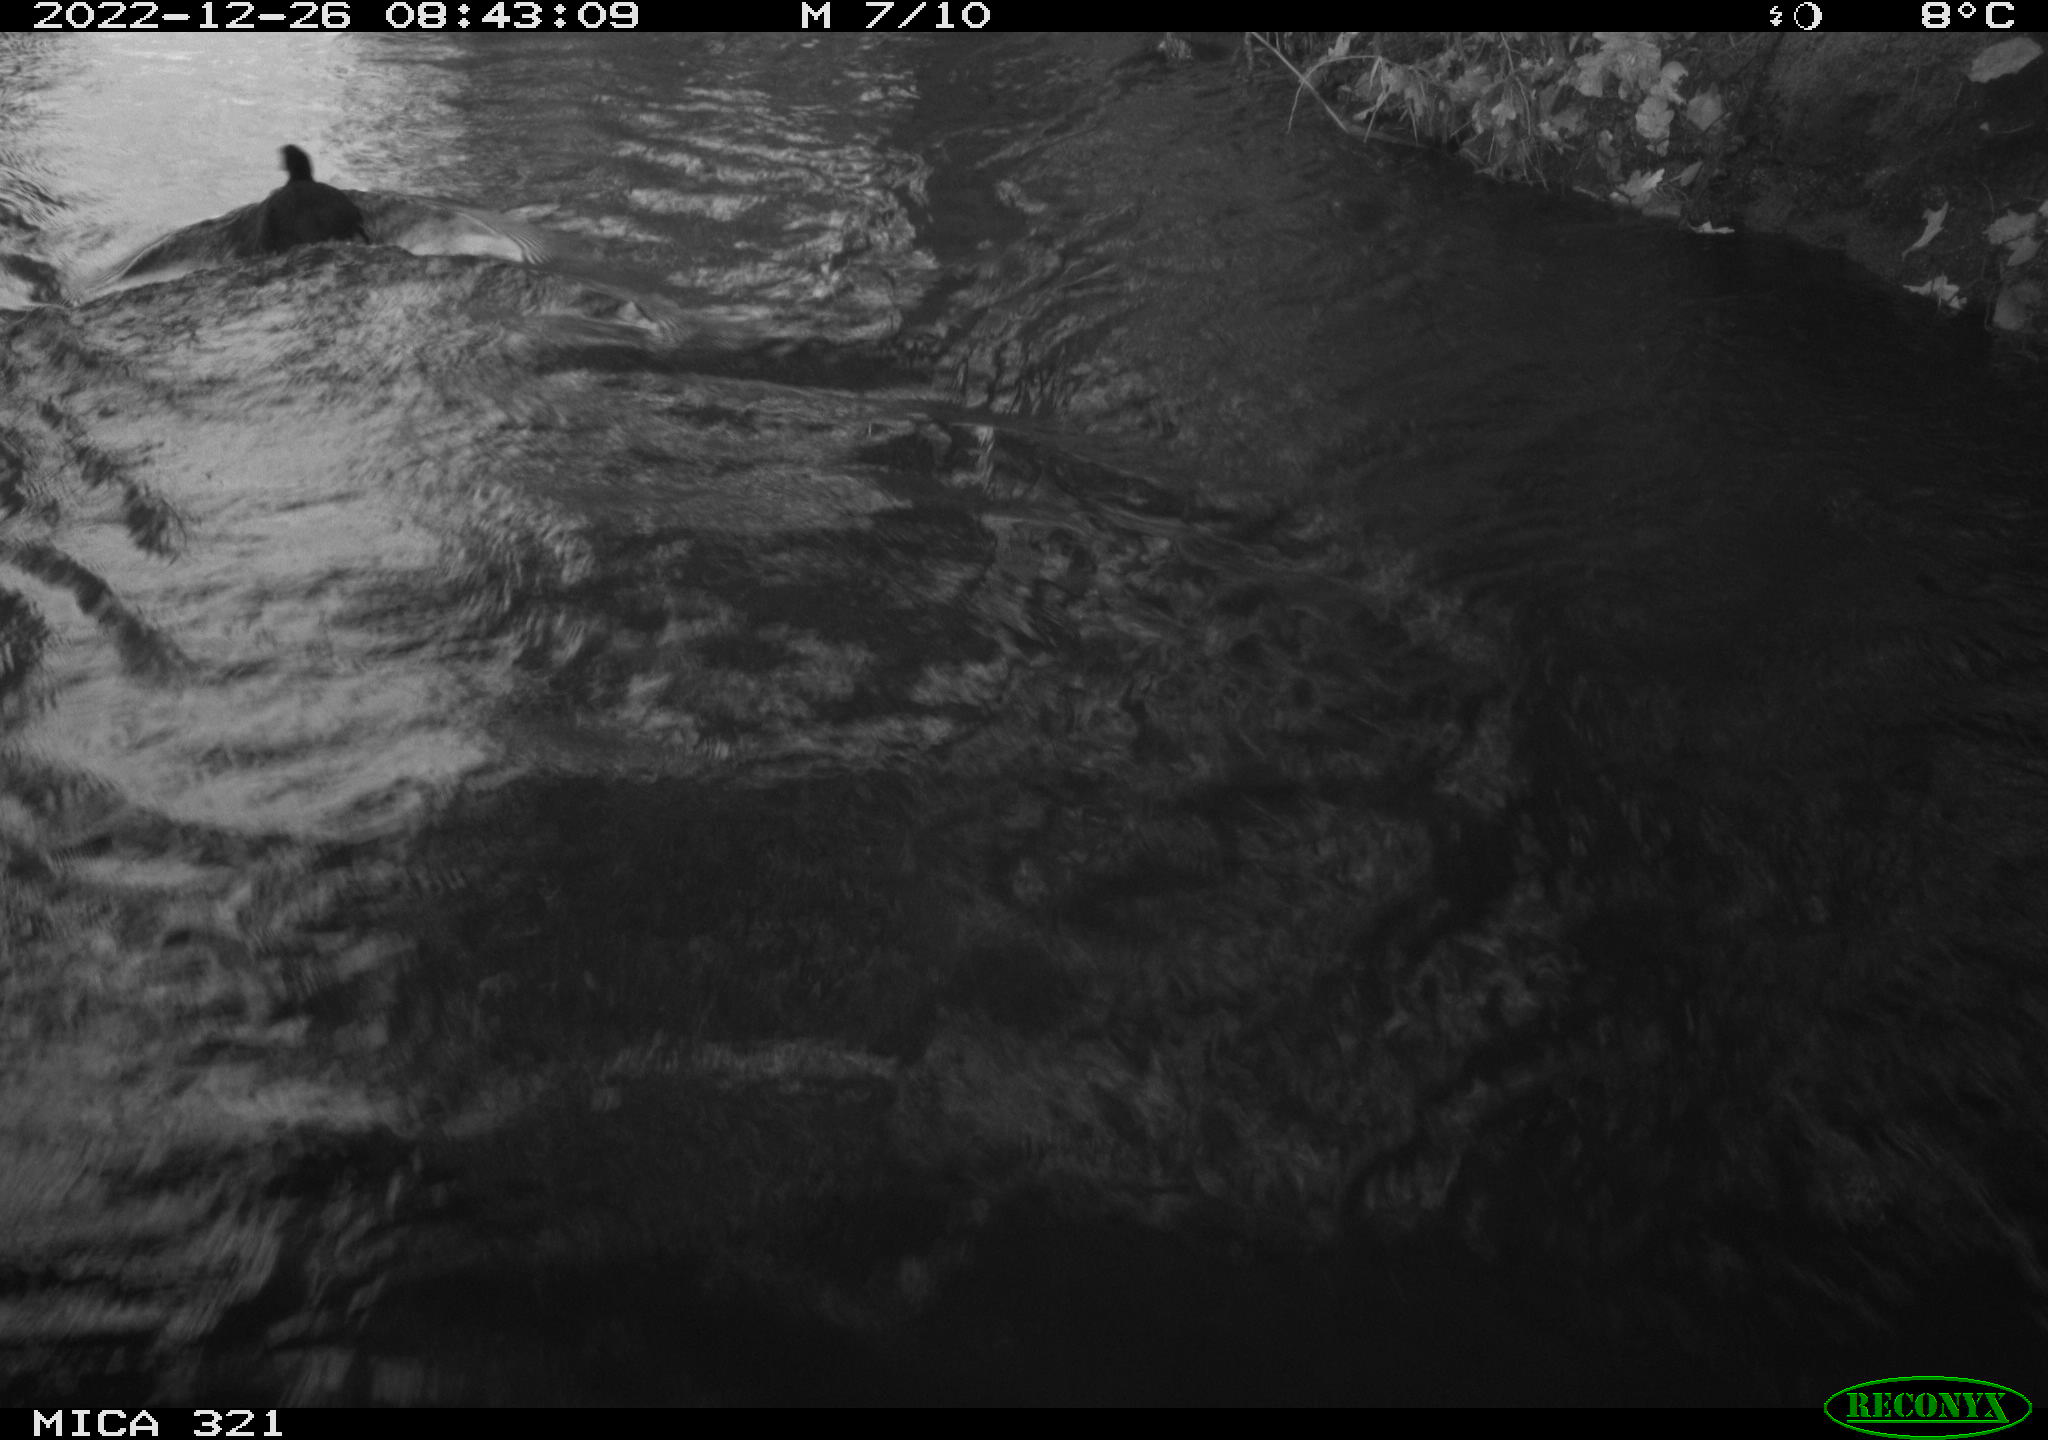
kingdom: Animalia
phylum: Chordata
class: Aves
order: Anseriformes
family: Anatidae
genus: Anas
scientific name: Anas
